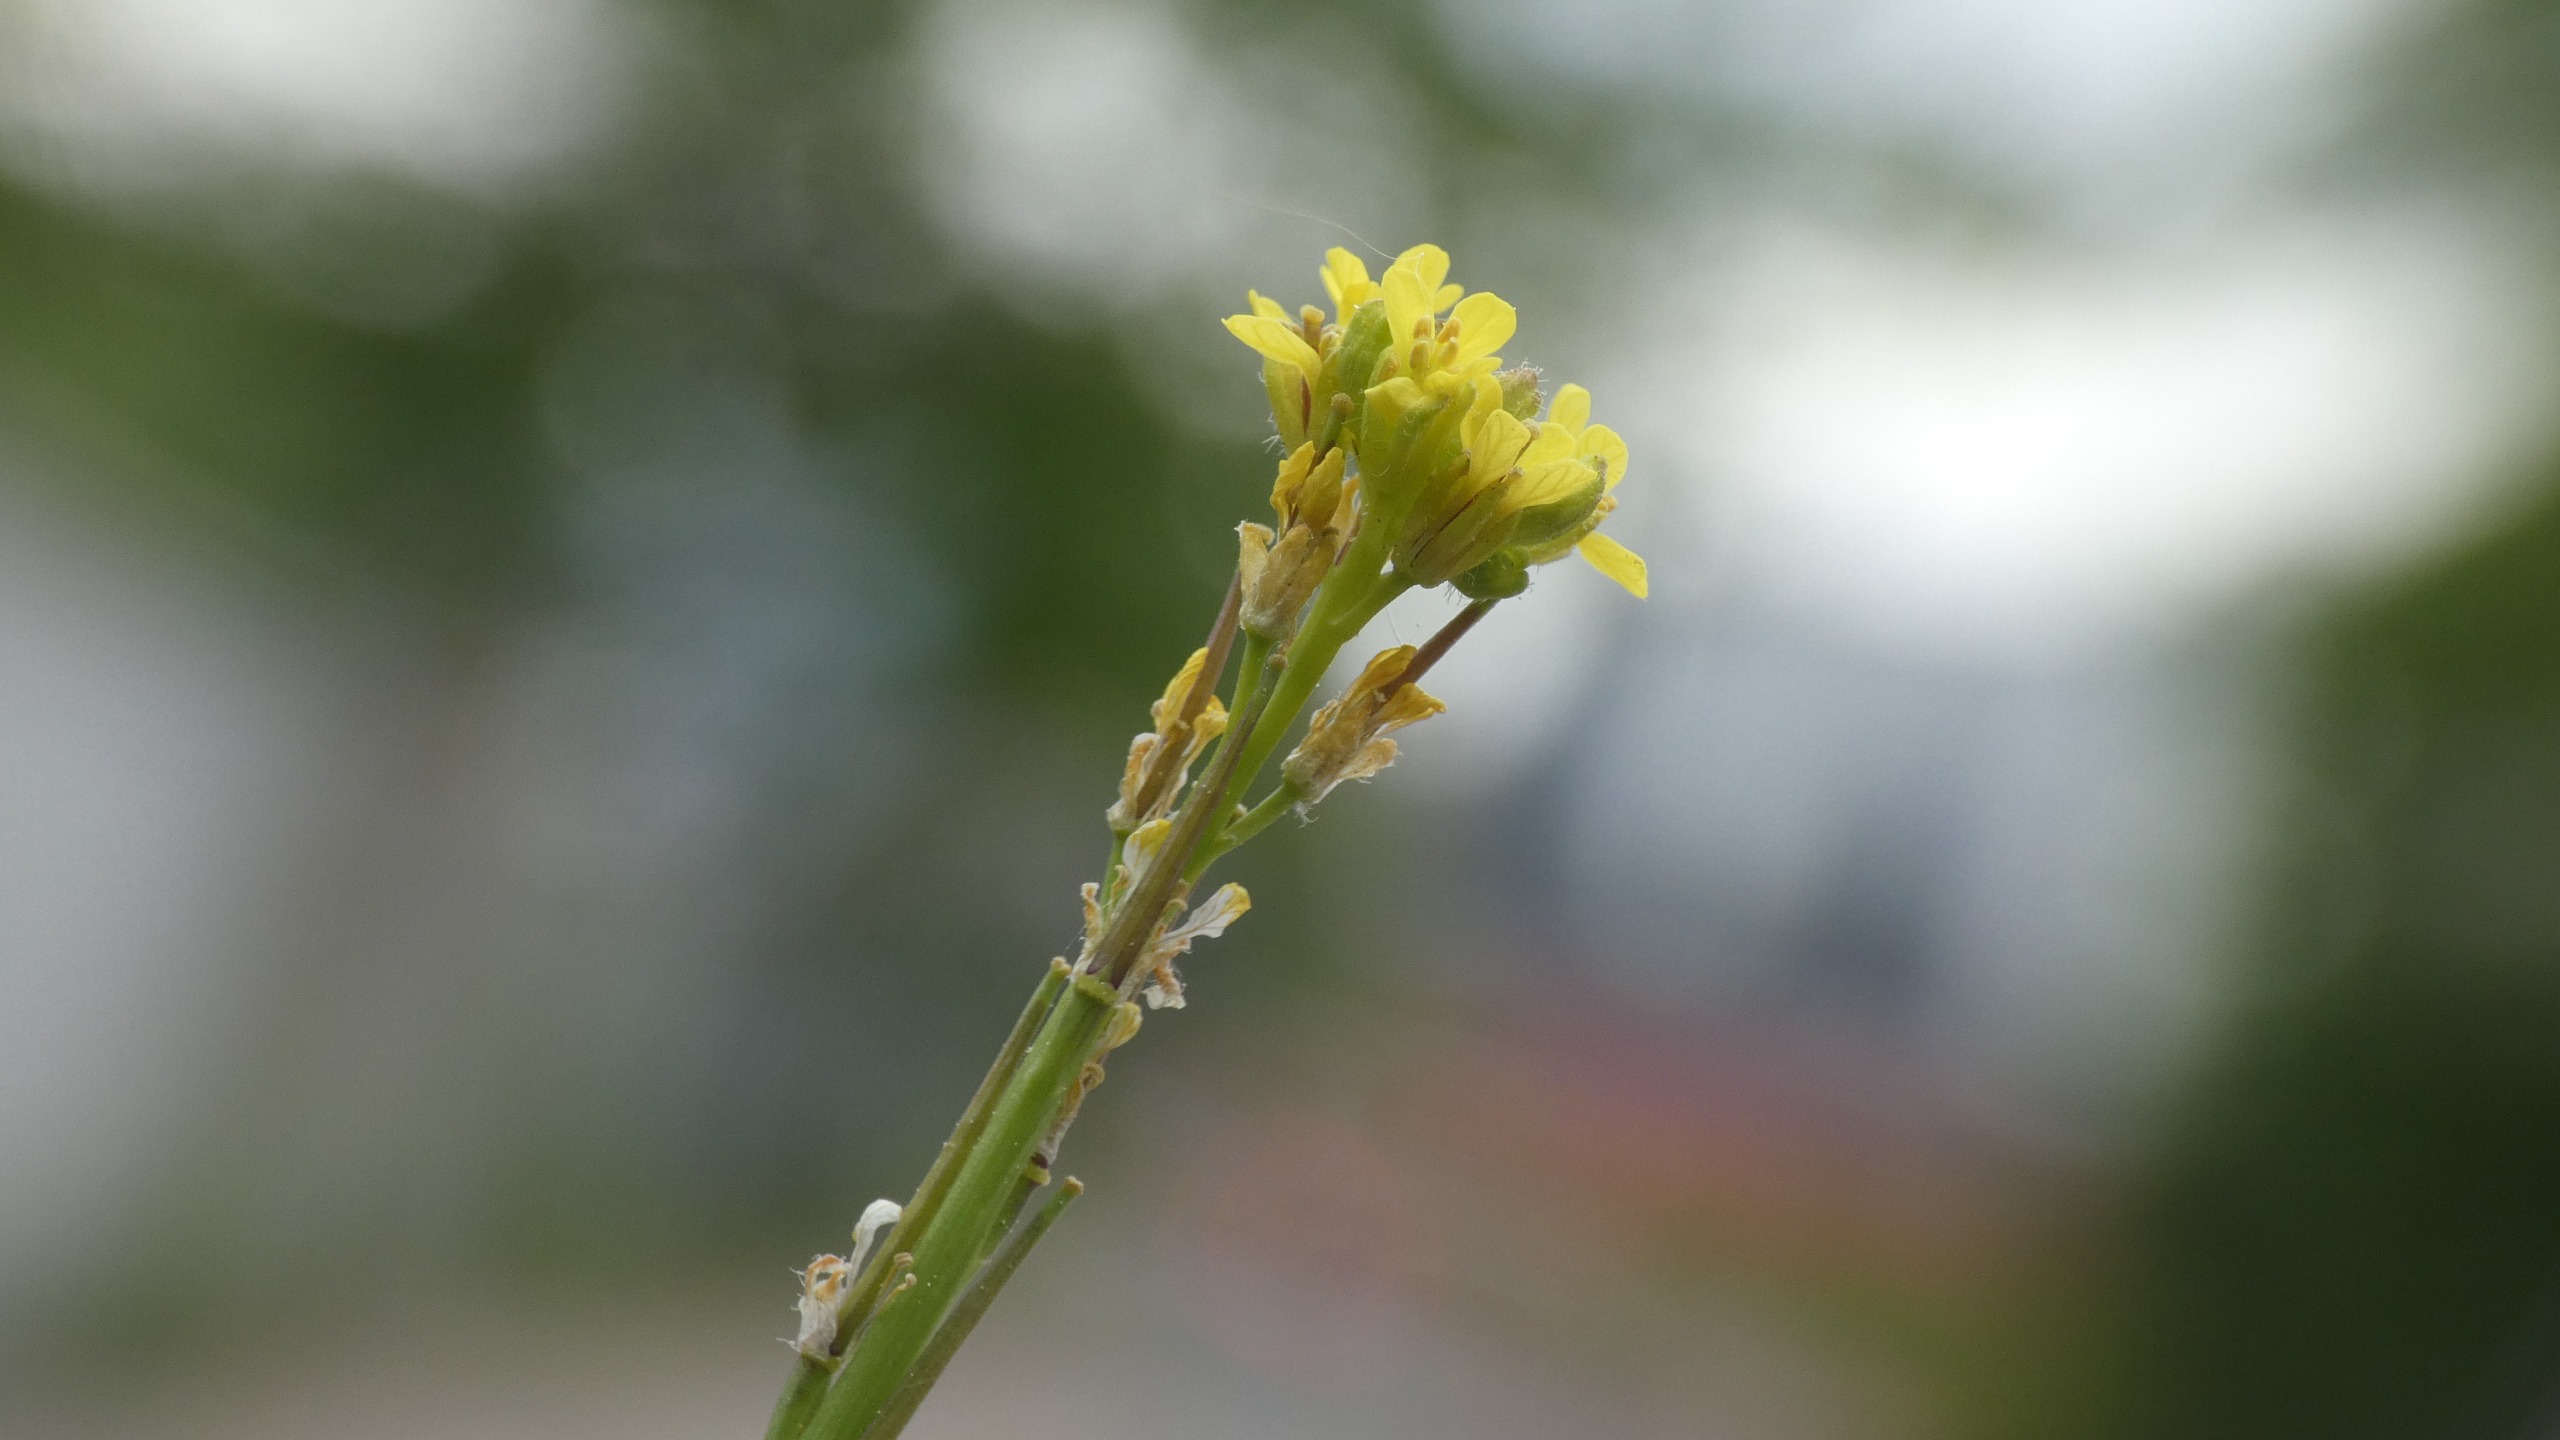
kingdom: Plantae
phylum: Tracheophyta
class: Magnoliopsida
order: Brassicales
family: Brassicaceae
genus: Sisymbrium
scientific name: Sisymbrium officinale
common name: Rank vejsennep
